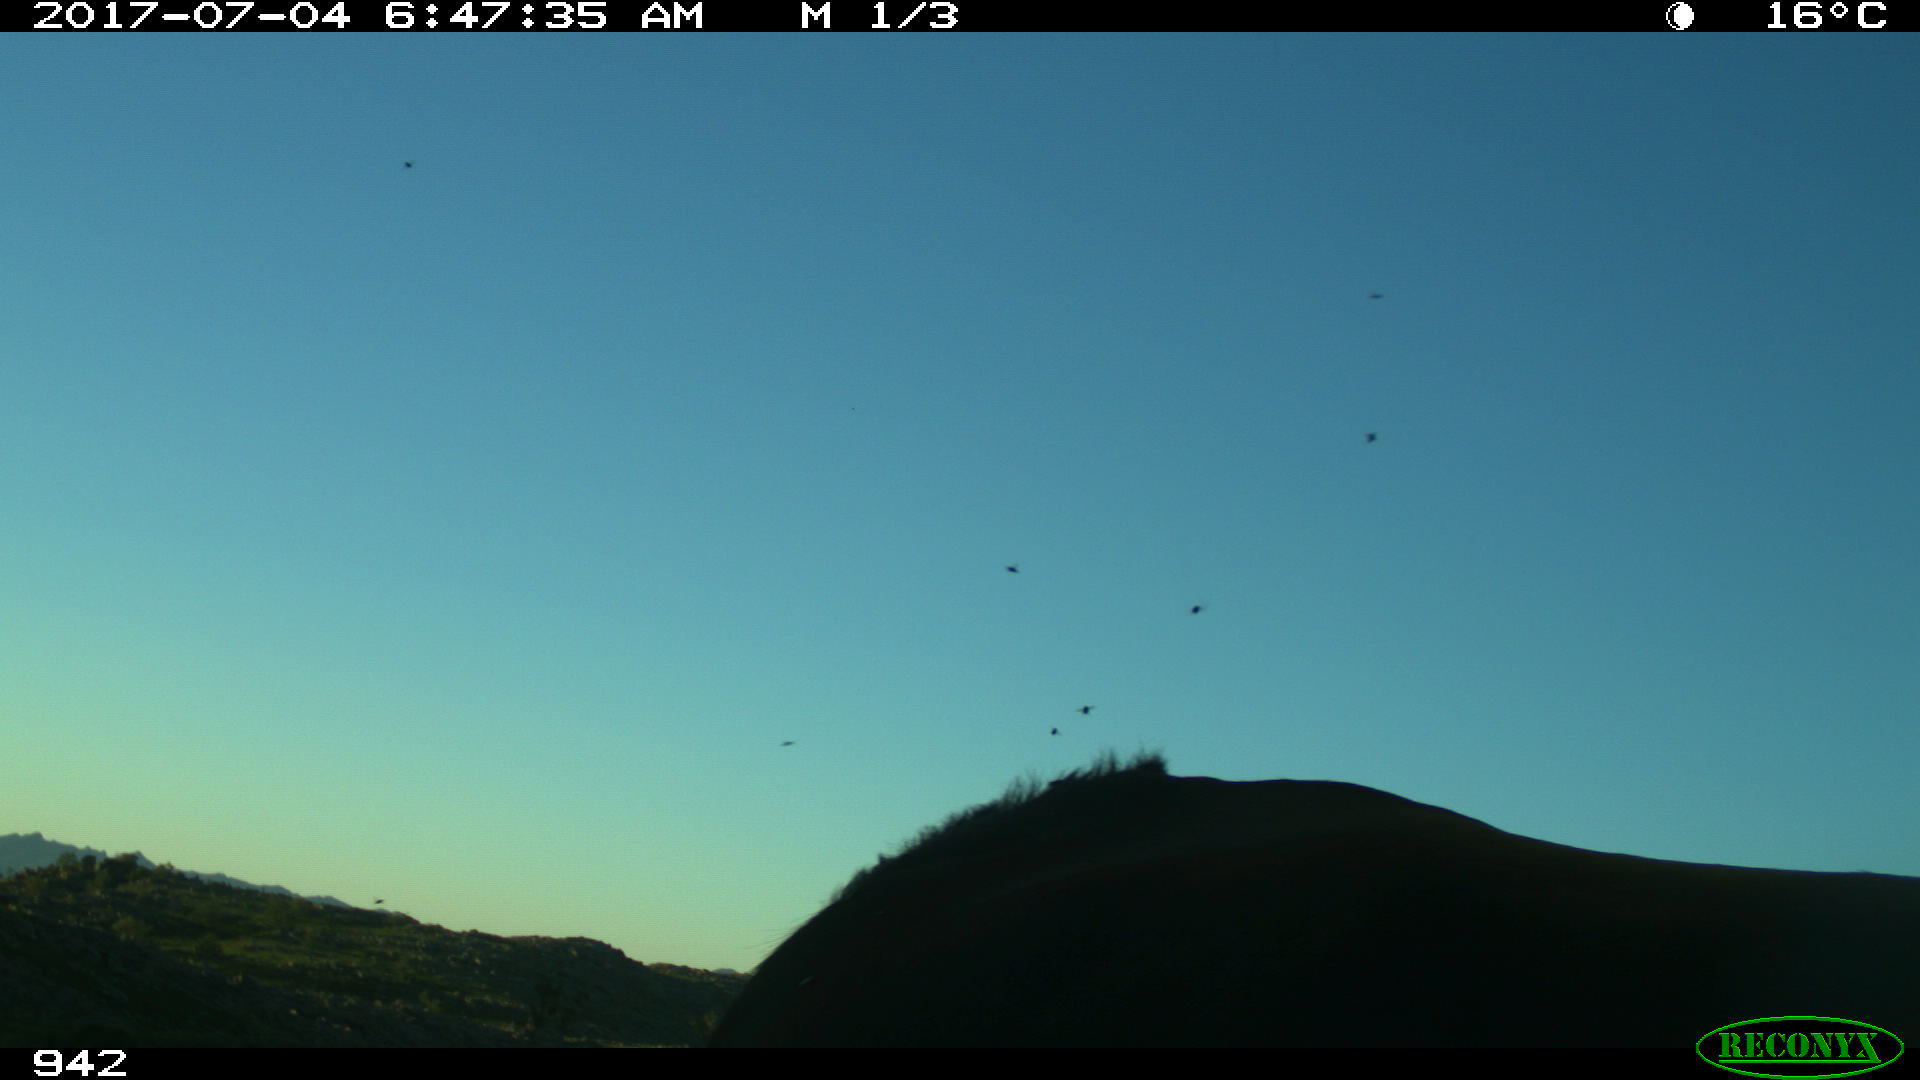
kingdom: Animalia
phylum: Chordata
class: Mammalia
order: Perissodactyla
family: Equidae
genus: Equus
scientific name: Equus caballus
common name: Horse
